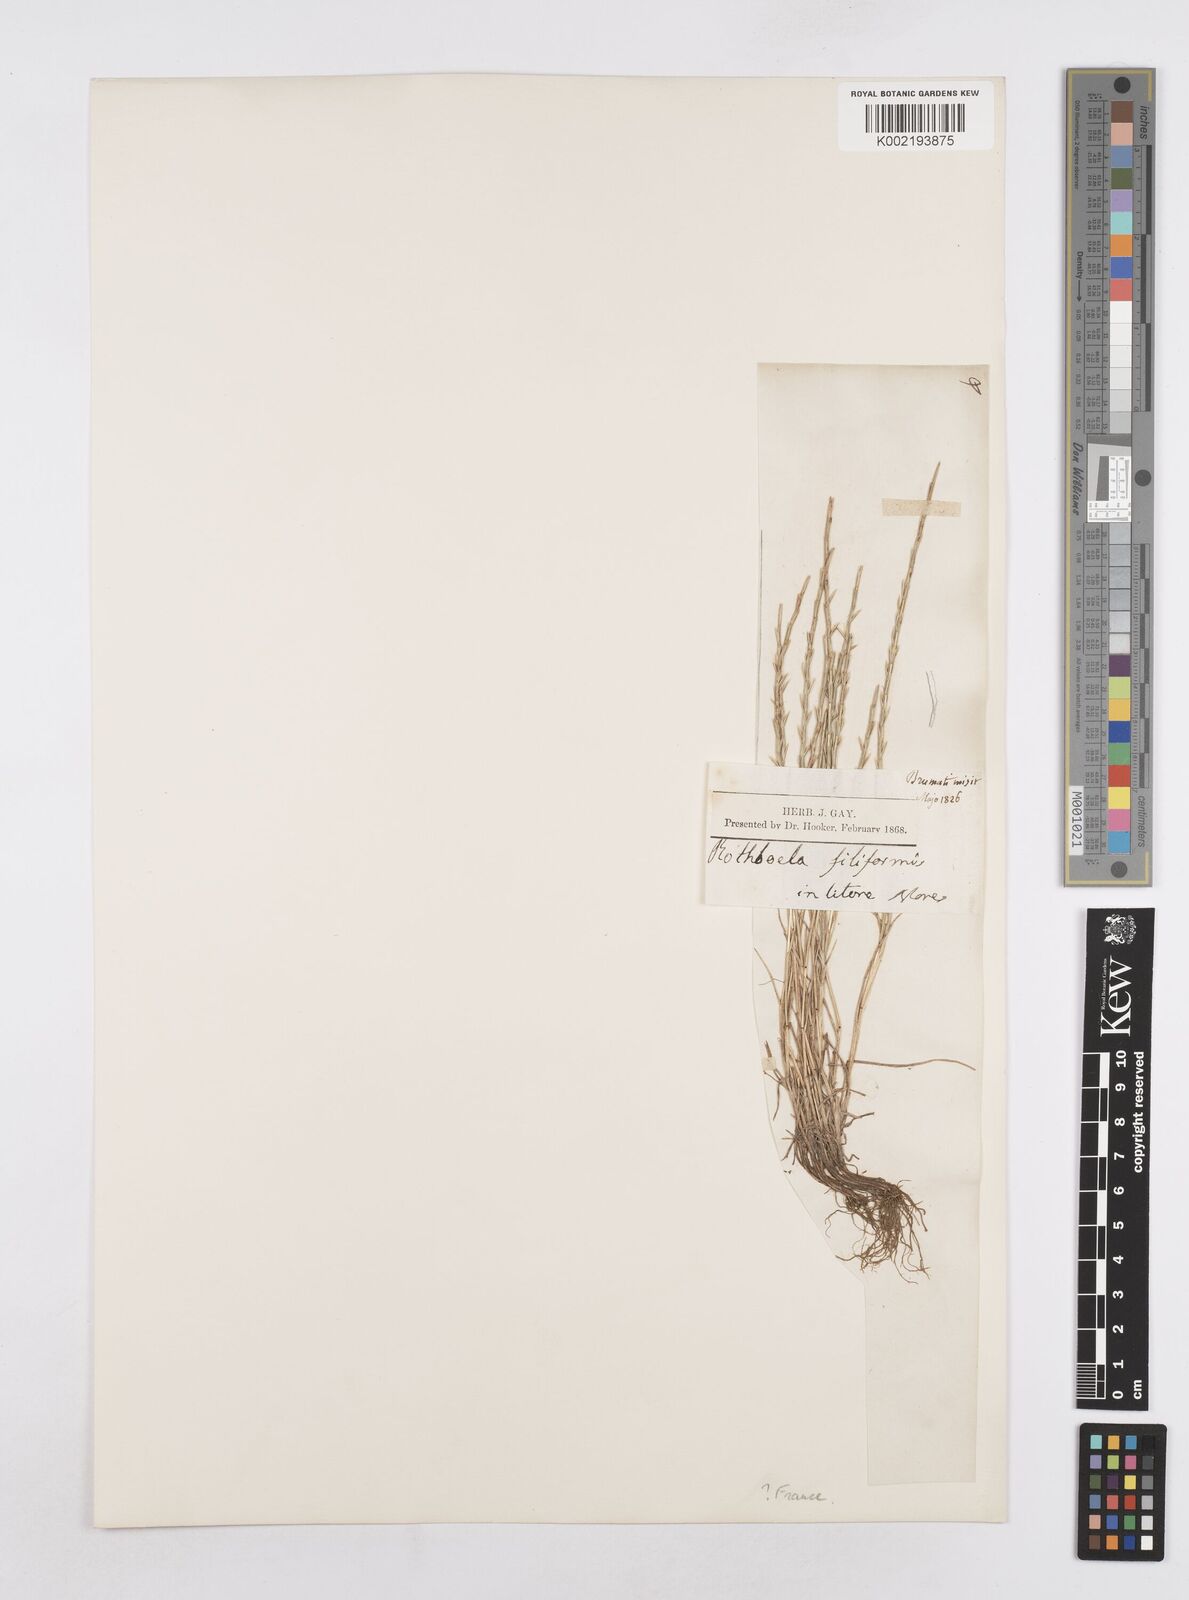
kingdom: Plantae
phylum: Tracheophyta
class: Liliopsida
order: Poales
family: Poaceae
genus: Parapholis
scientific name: Parapholis strigosa
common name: Hard-grass
